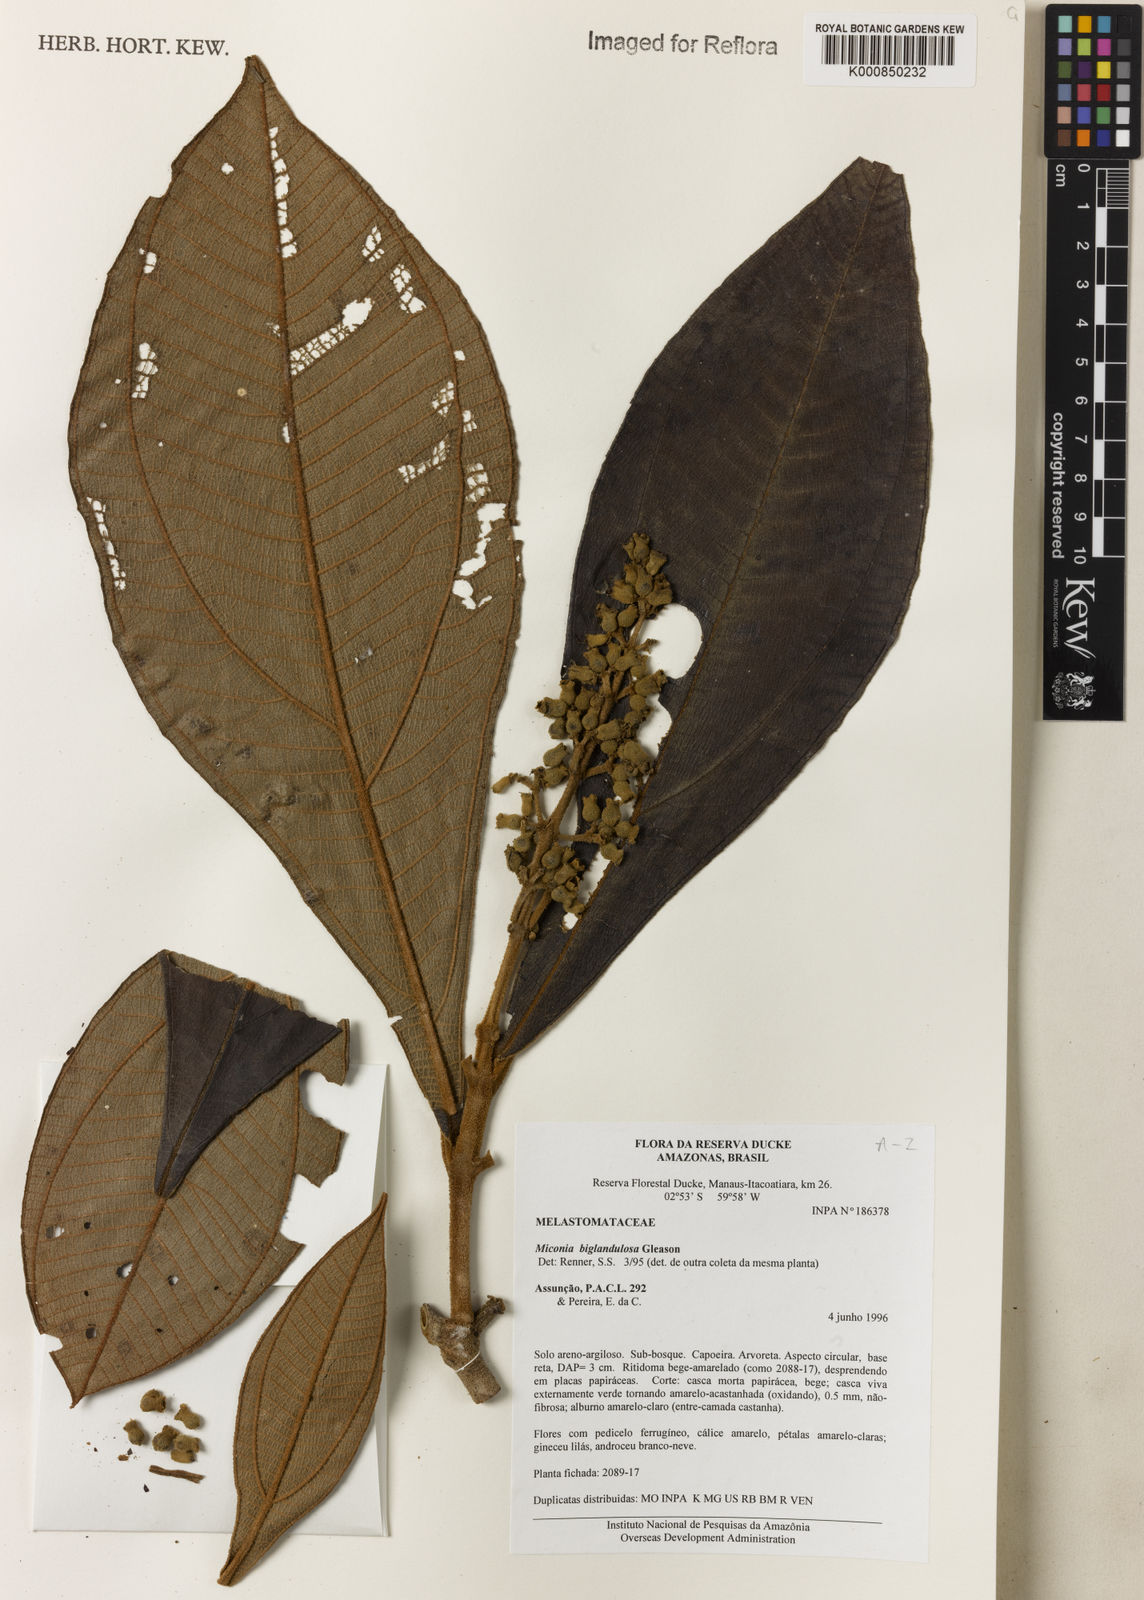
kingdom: Plantae
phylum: Tracheophyta
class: Magnoliopsida
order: Myrtales
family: Melastomataceae
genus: Miconia
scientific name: Miconia biglandulosa
